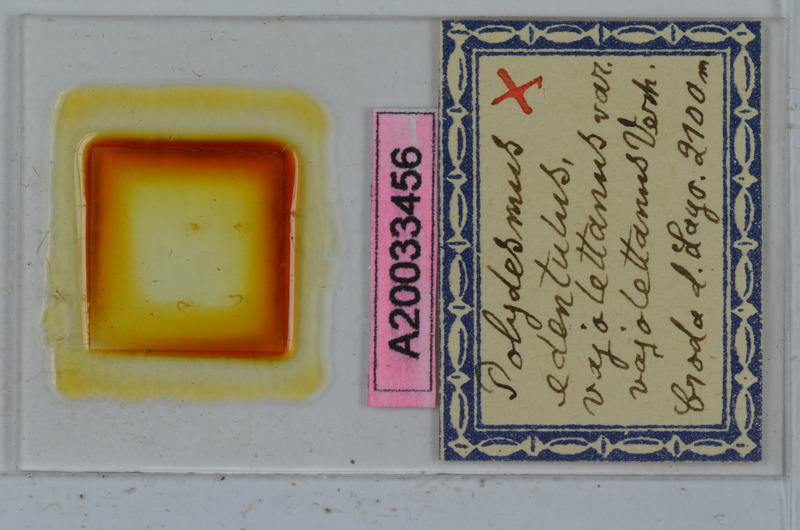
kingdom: Animalia
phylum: Arthropoda
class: Diplopoda
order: Polydesmida
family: Polydesmidae
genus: Polydesmus
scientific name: Polydesmus edentulus
